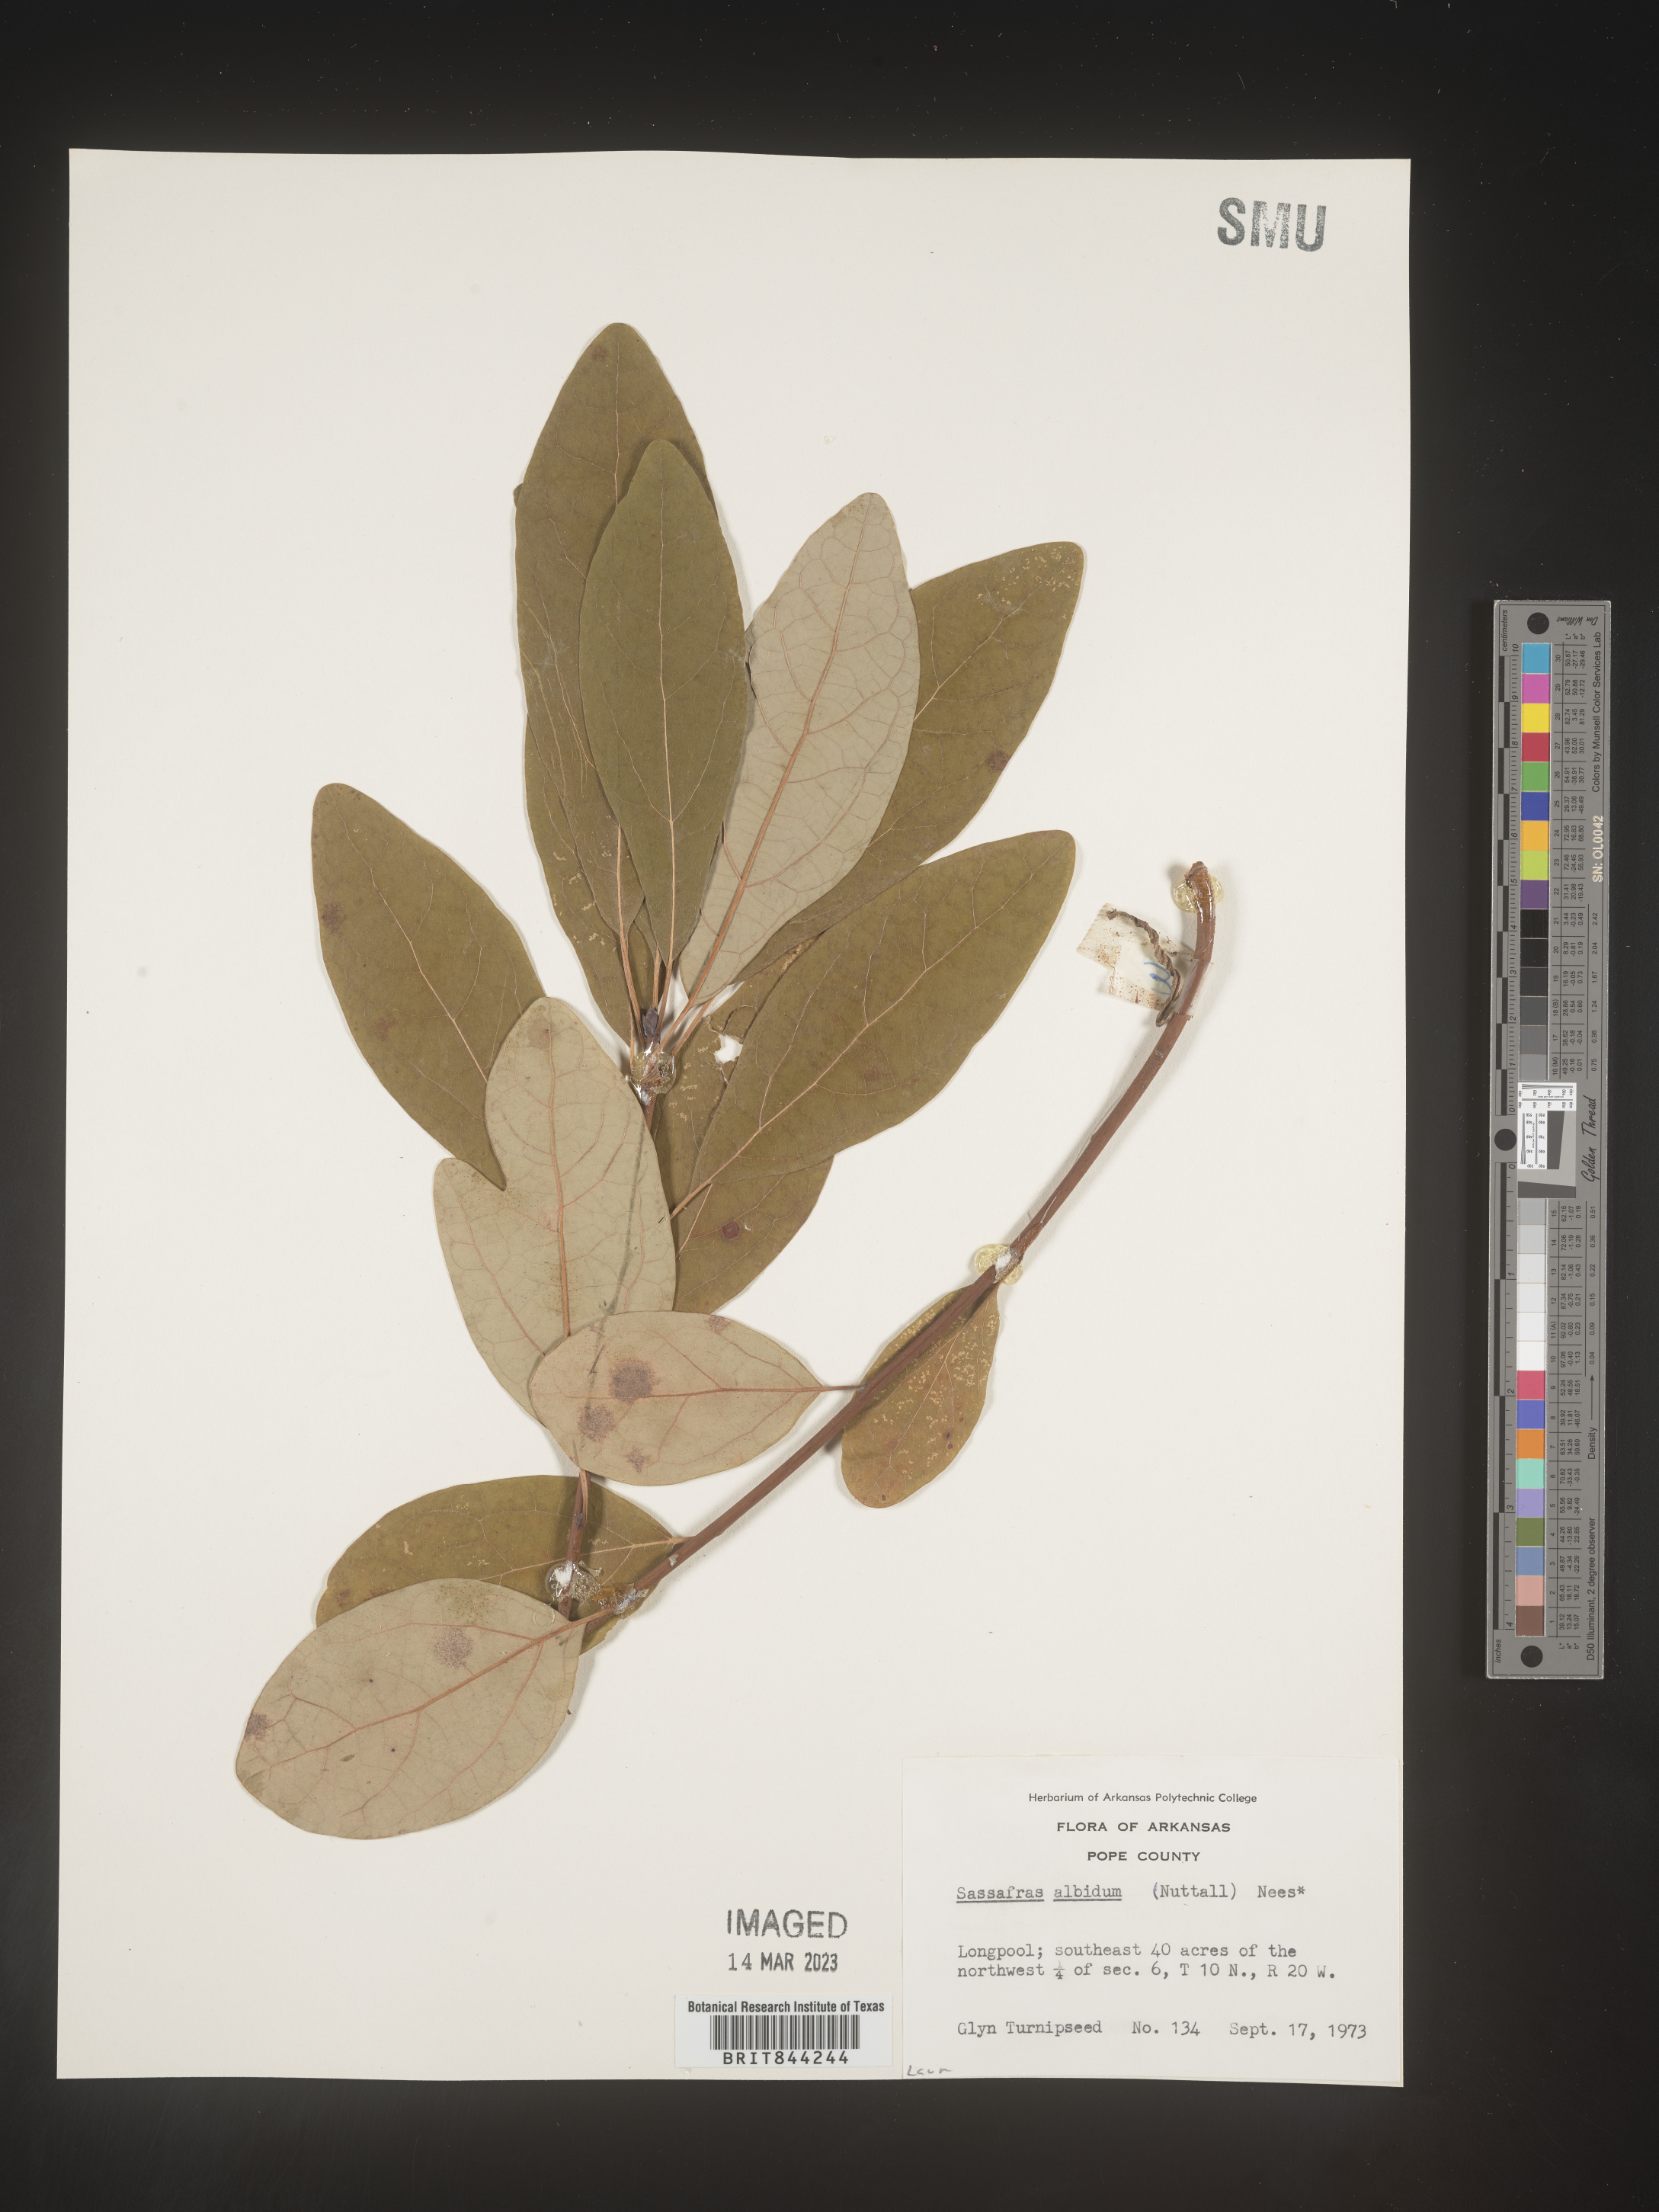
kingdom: Plantae
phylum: Tracheophyta
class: Magnoliopsida
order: Laurales
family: Lauraceae
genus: Sassafras
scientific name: Sassafras albidum
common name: Sassafras
